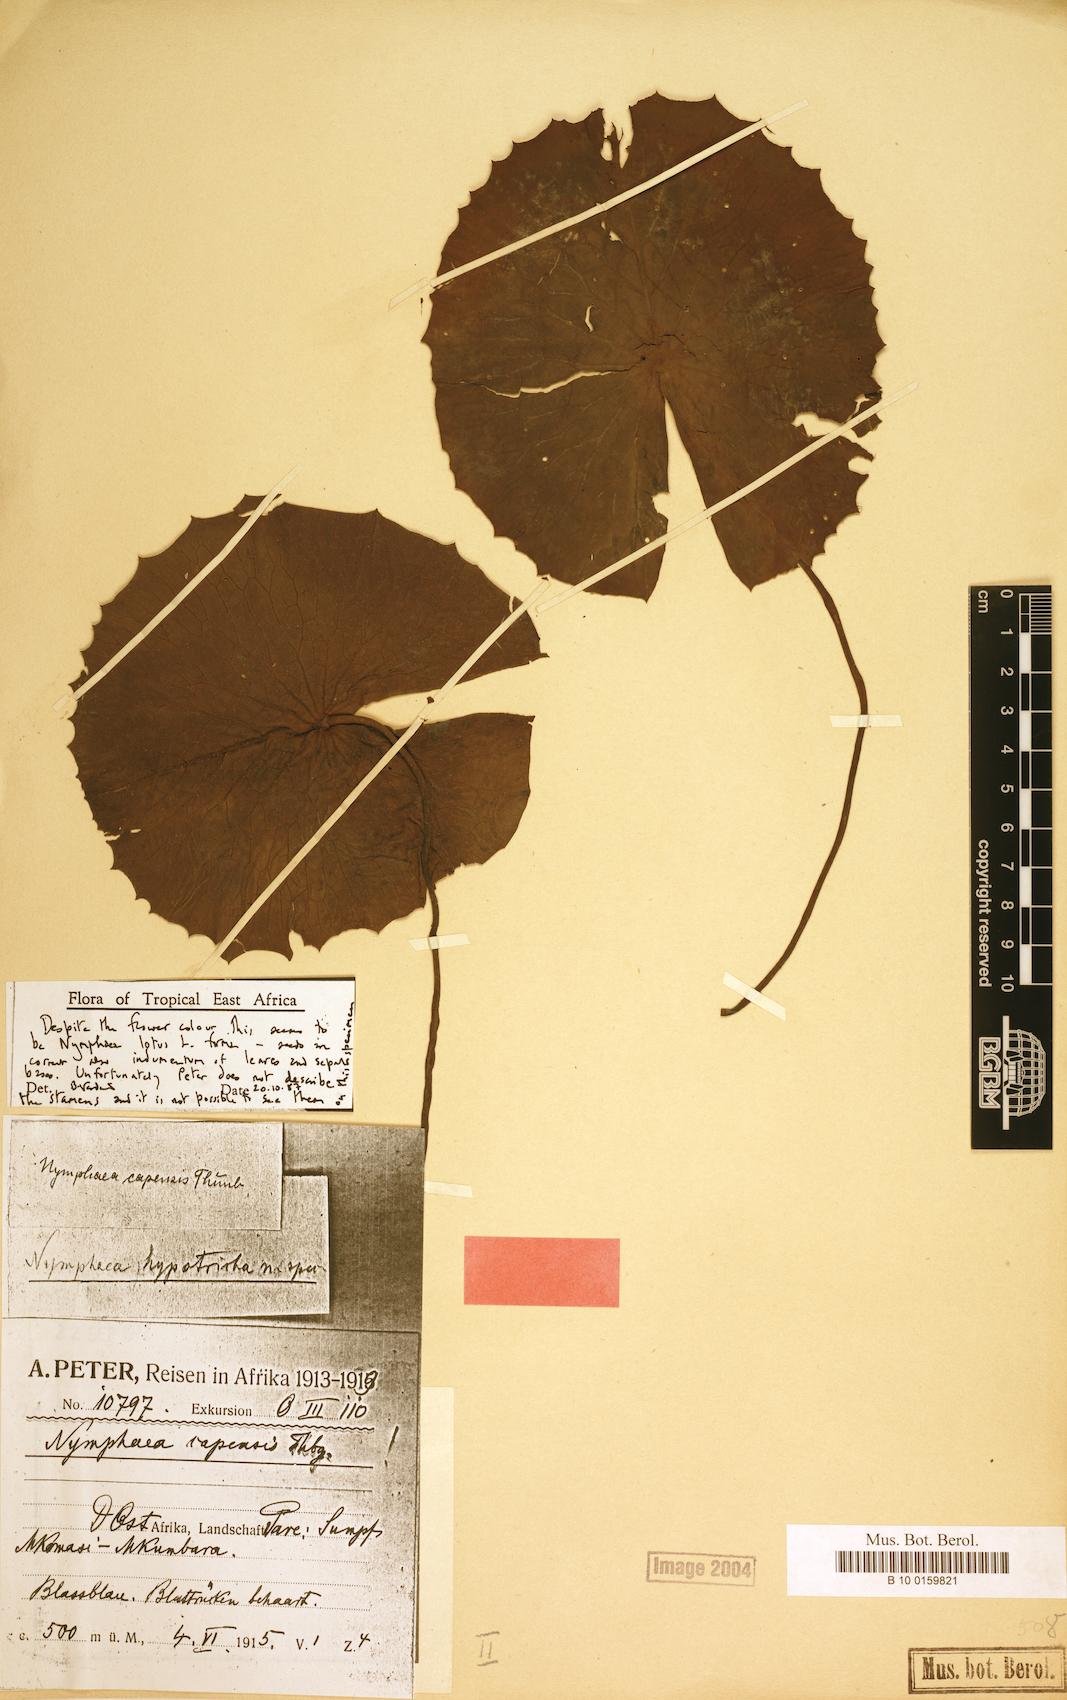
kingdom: Plantae
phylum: Tracheophyta
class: Magnoliopsida
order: Nymphaeales
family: Nymphaeaceae
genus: Nymphaea
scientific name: Nymphaea lotus
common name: White egyptian lotus
